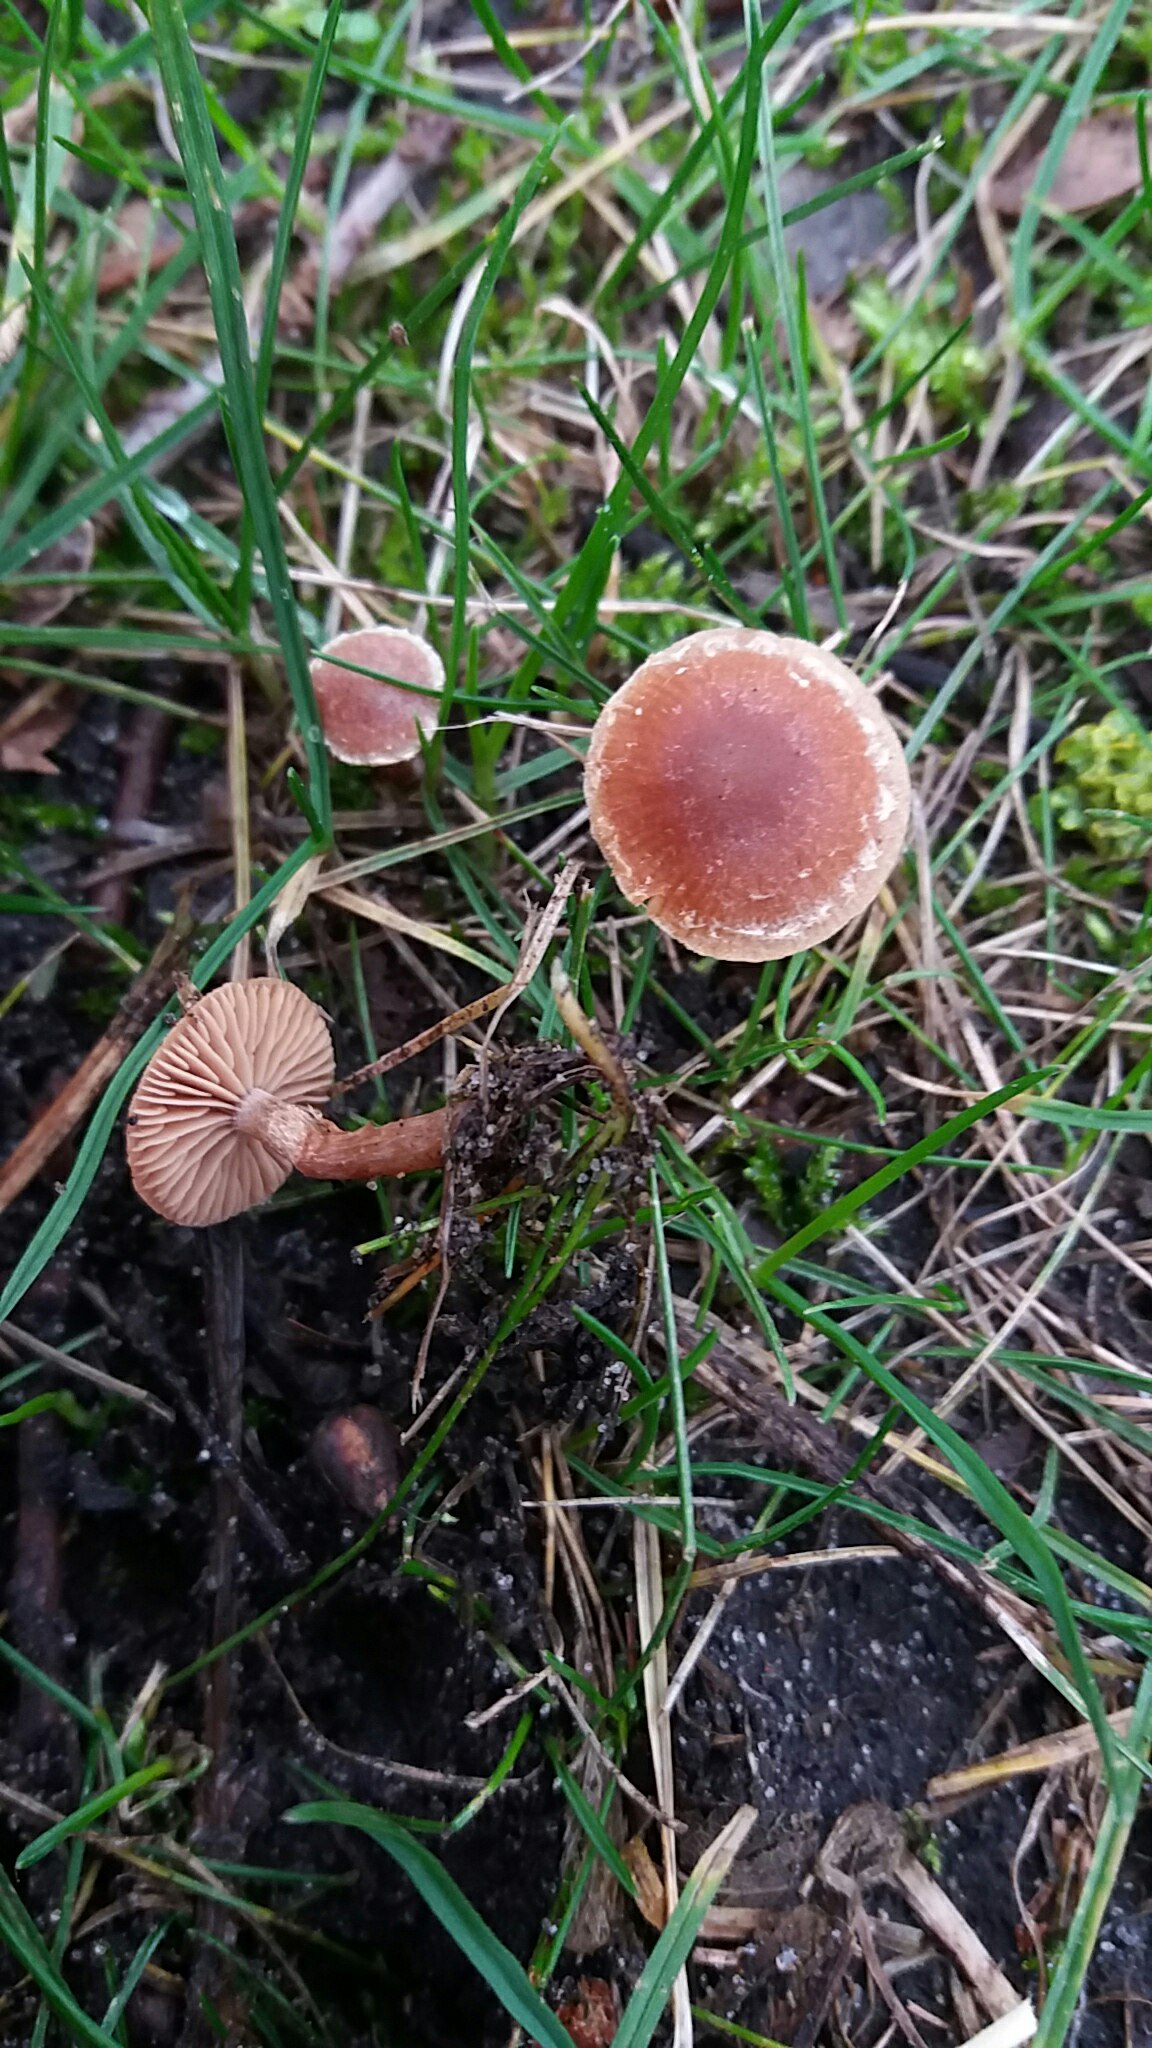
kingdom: Fungi
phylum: Basidiomycota
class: Agaricomycetes
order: Agaricales
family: Tubariaceae
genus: Tubaria
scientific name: Tubaria furfuracea
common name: kliddet fnughat
